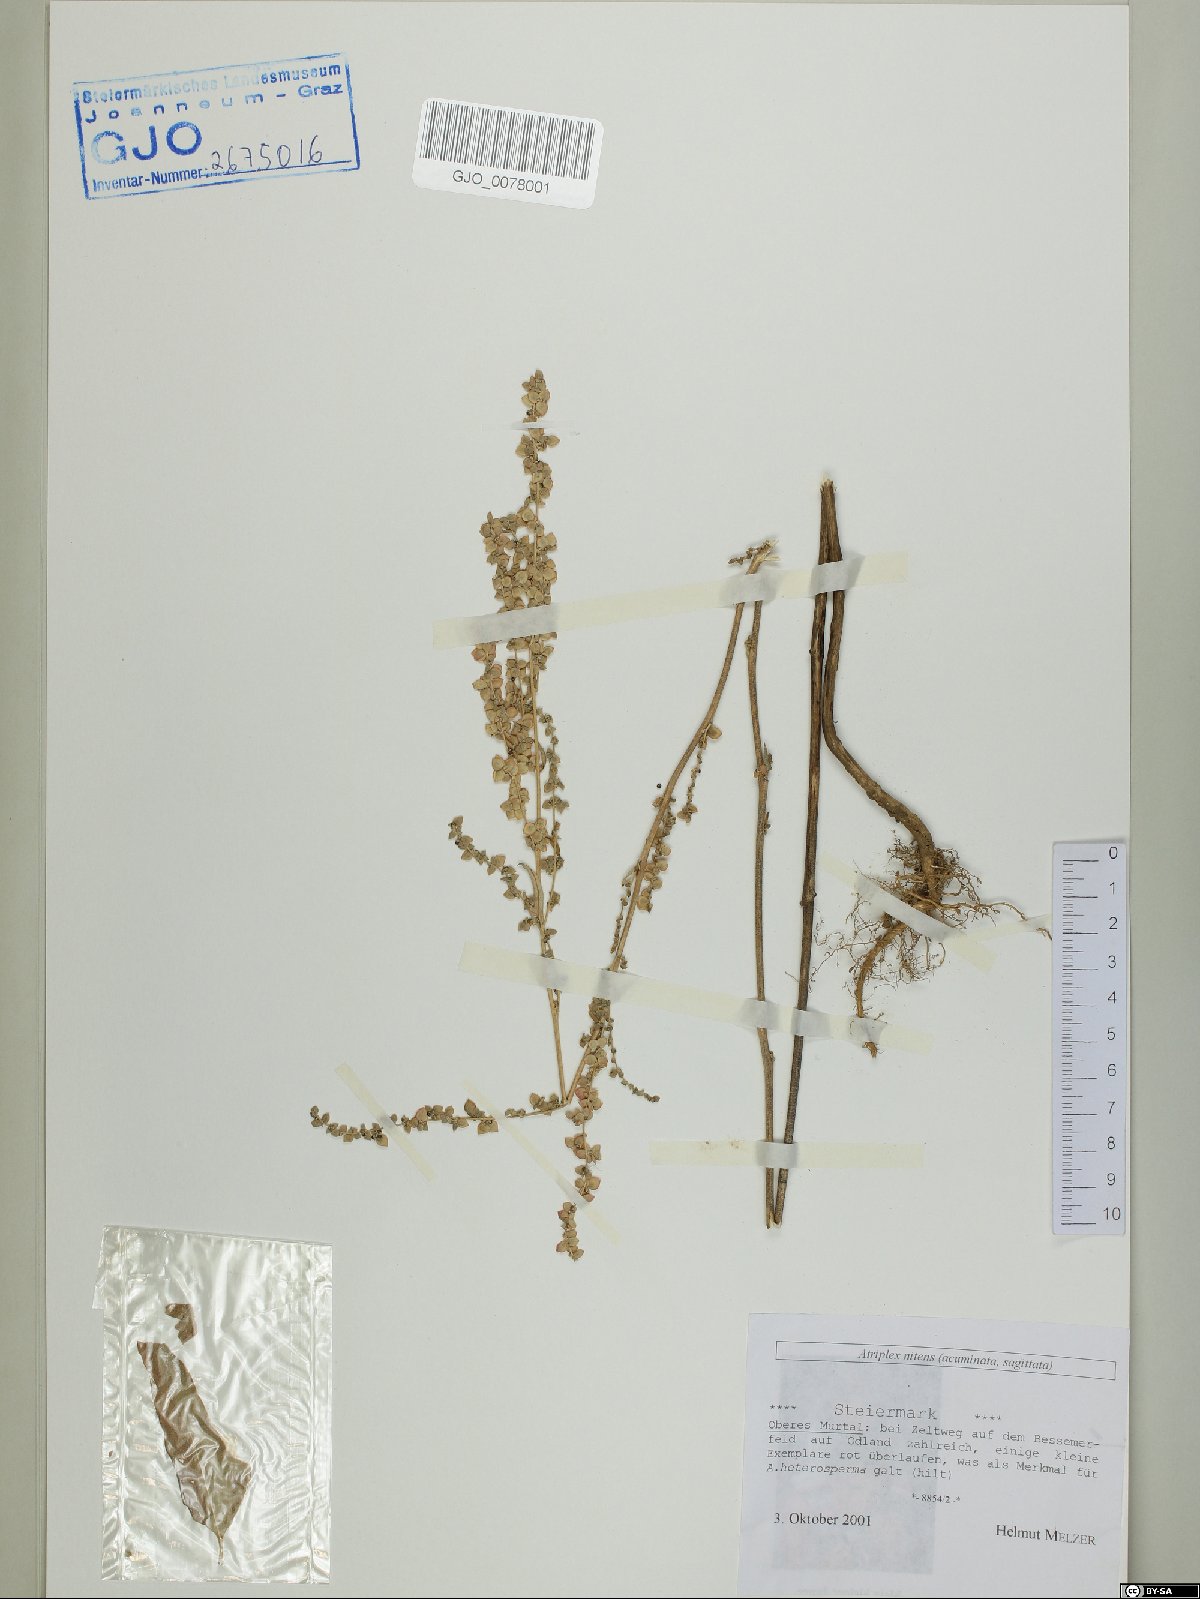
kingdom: Plantae
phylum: Tracheophyta
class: Magnoliopsida
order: Caryophyllales
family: Amaranthaceae
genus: Atriplex
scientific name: Atriplex sagittata
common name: Purple orache
